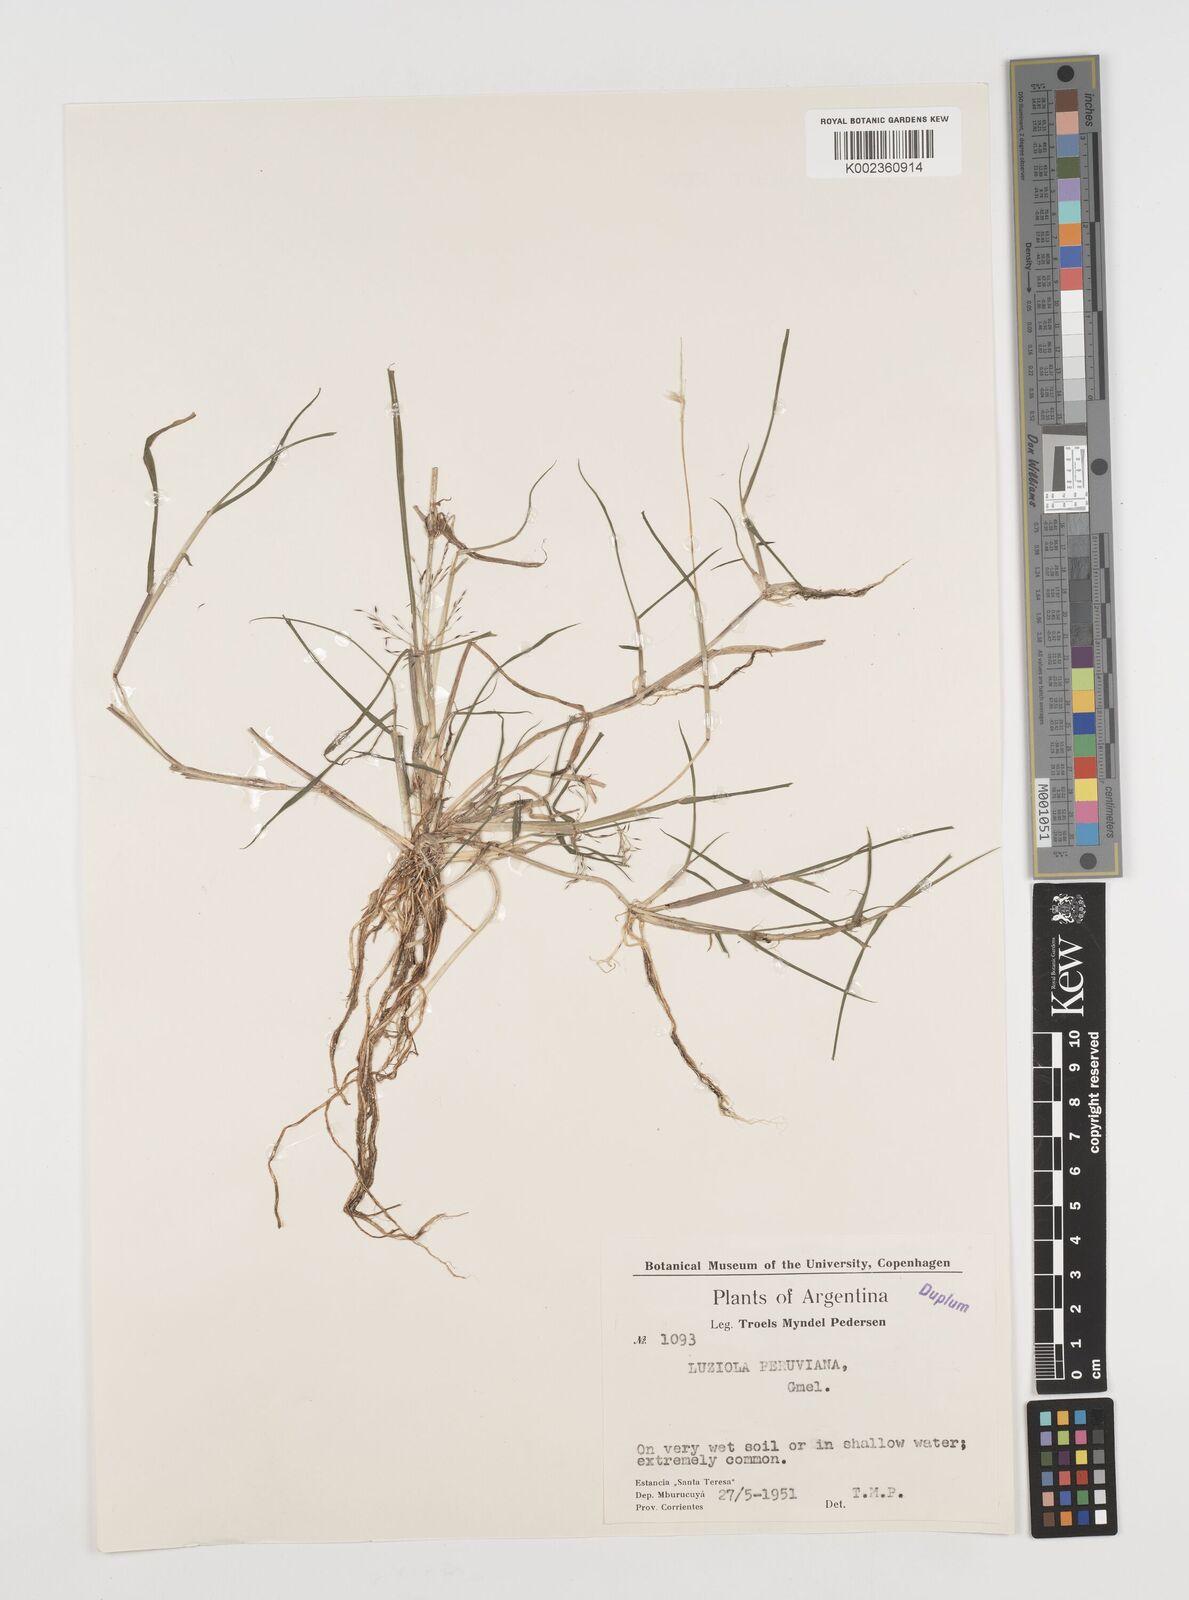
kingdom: Plantae
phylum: Tracheophyta
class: Liliopsida
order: Poales
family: Poaceae
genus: Luziola
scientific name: Luziola peruviana
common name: Peruvian watergrass
